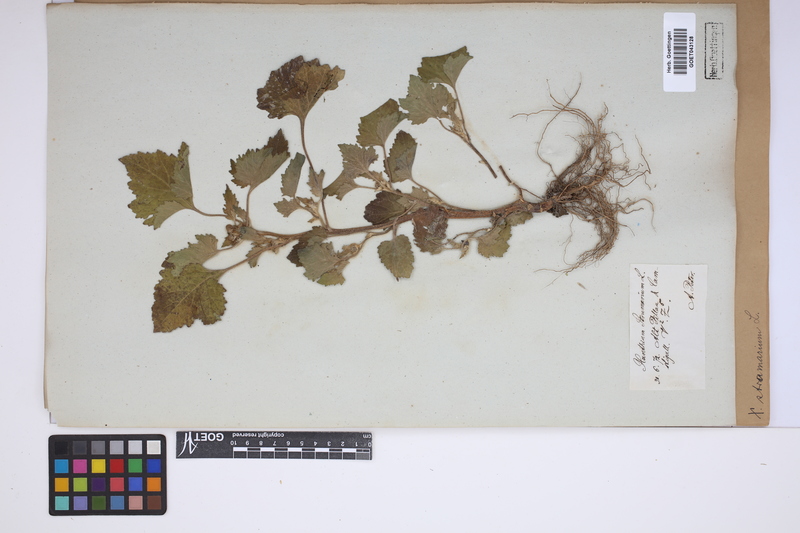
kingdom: Plantae
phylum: Tracheophyta
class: Magnoliopsida
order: Asterales
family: Asteraceae
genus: Xanthium
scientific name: Xanthium strumarium
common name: Rough cocklebur
